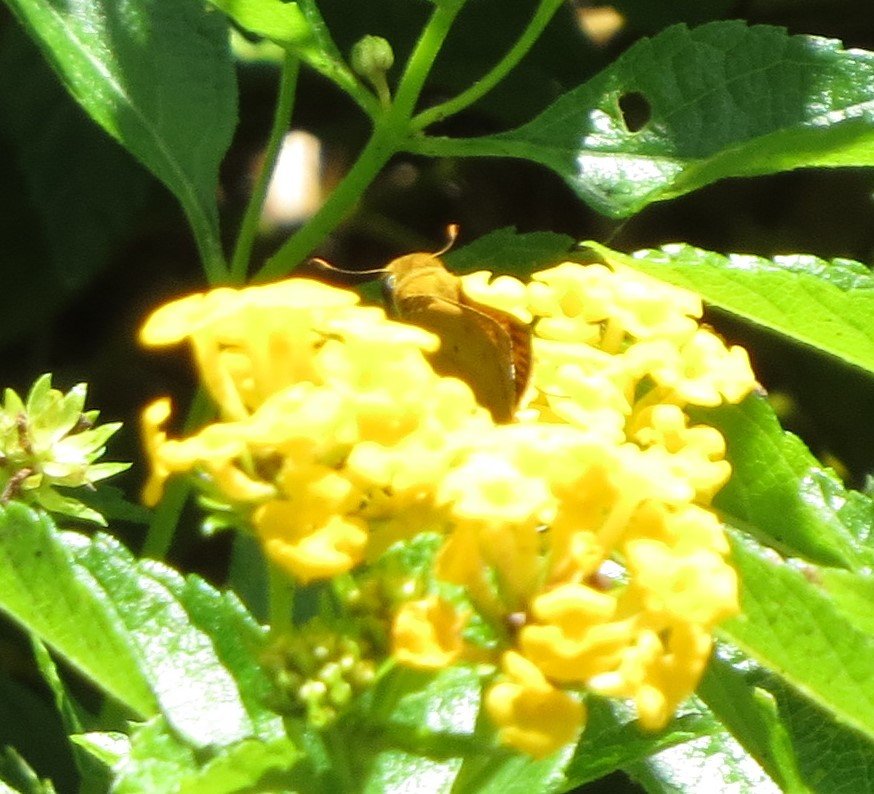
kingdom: Animalia
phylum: Arthropoda
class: Insecta
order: Lepidoptera
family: Hesperiidae
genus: Hylephila
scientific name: Hylephila phyleus
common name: Fiery Skipper
